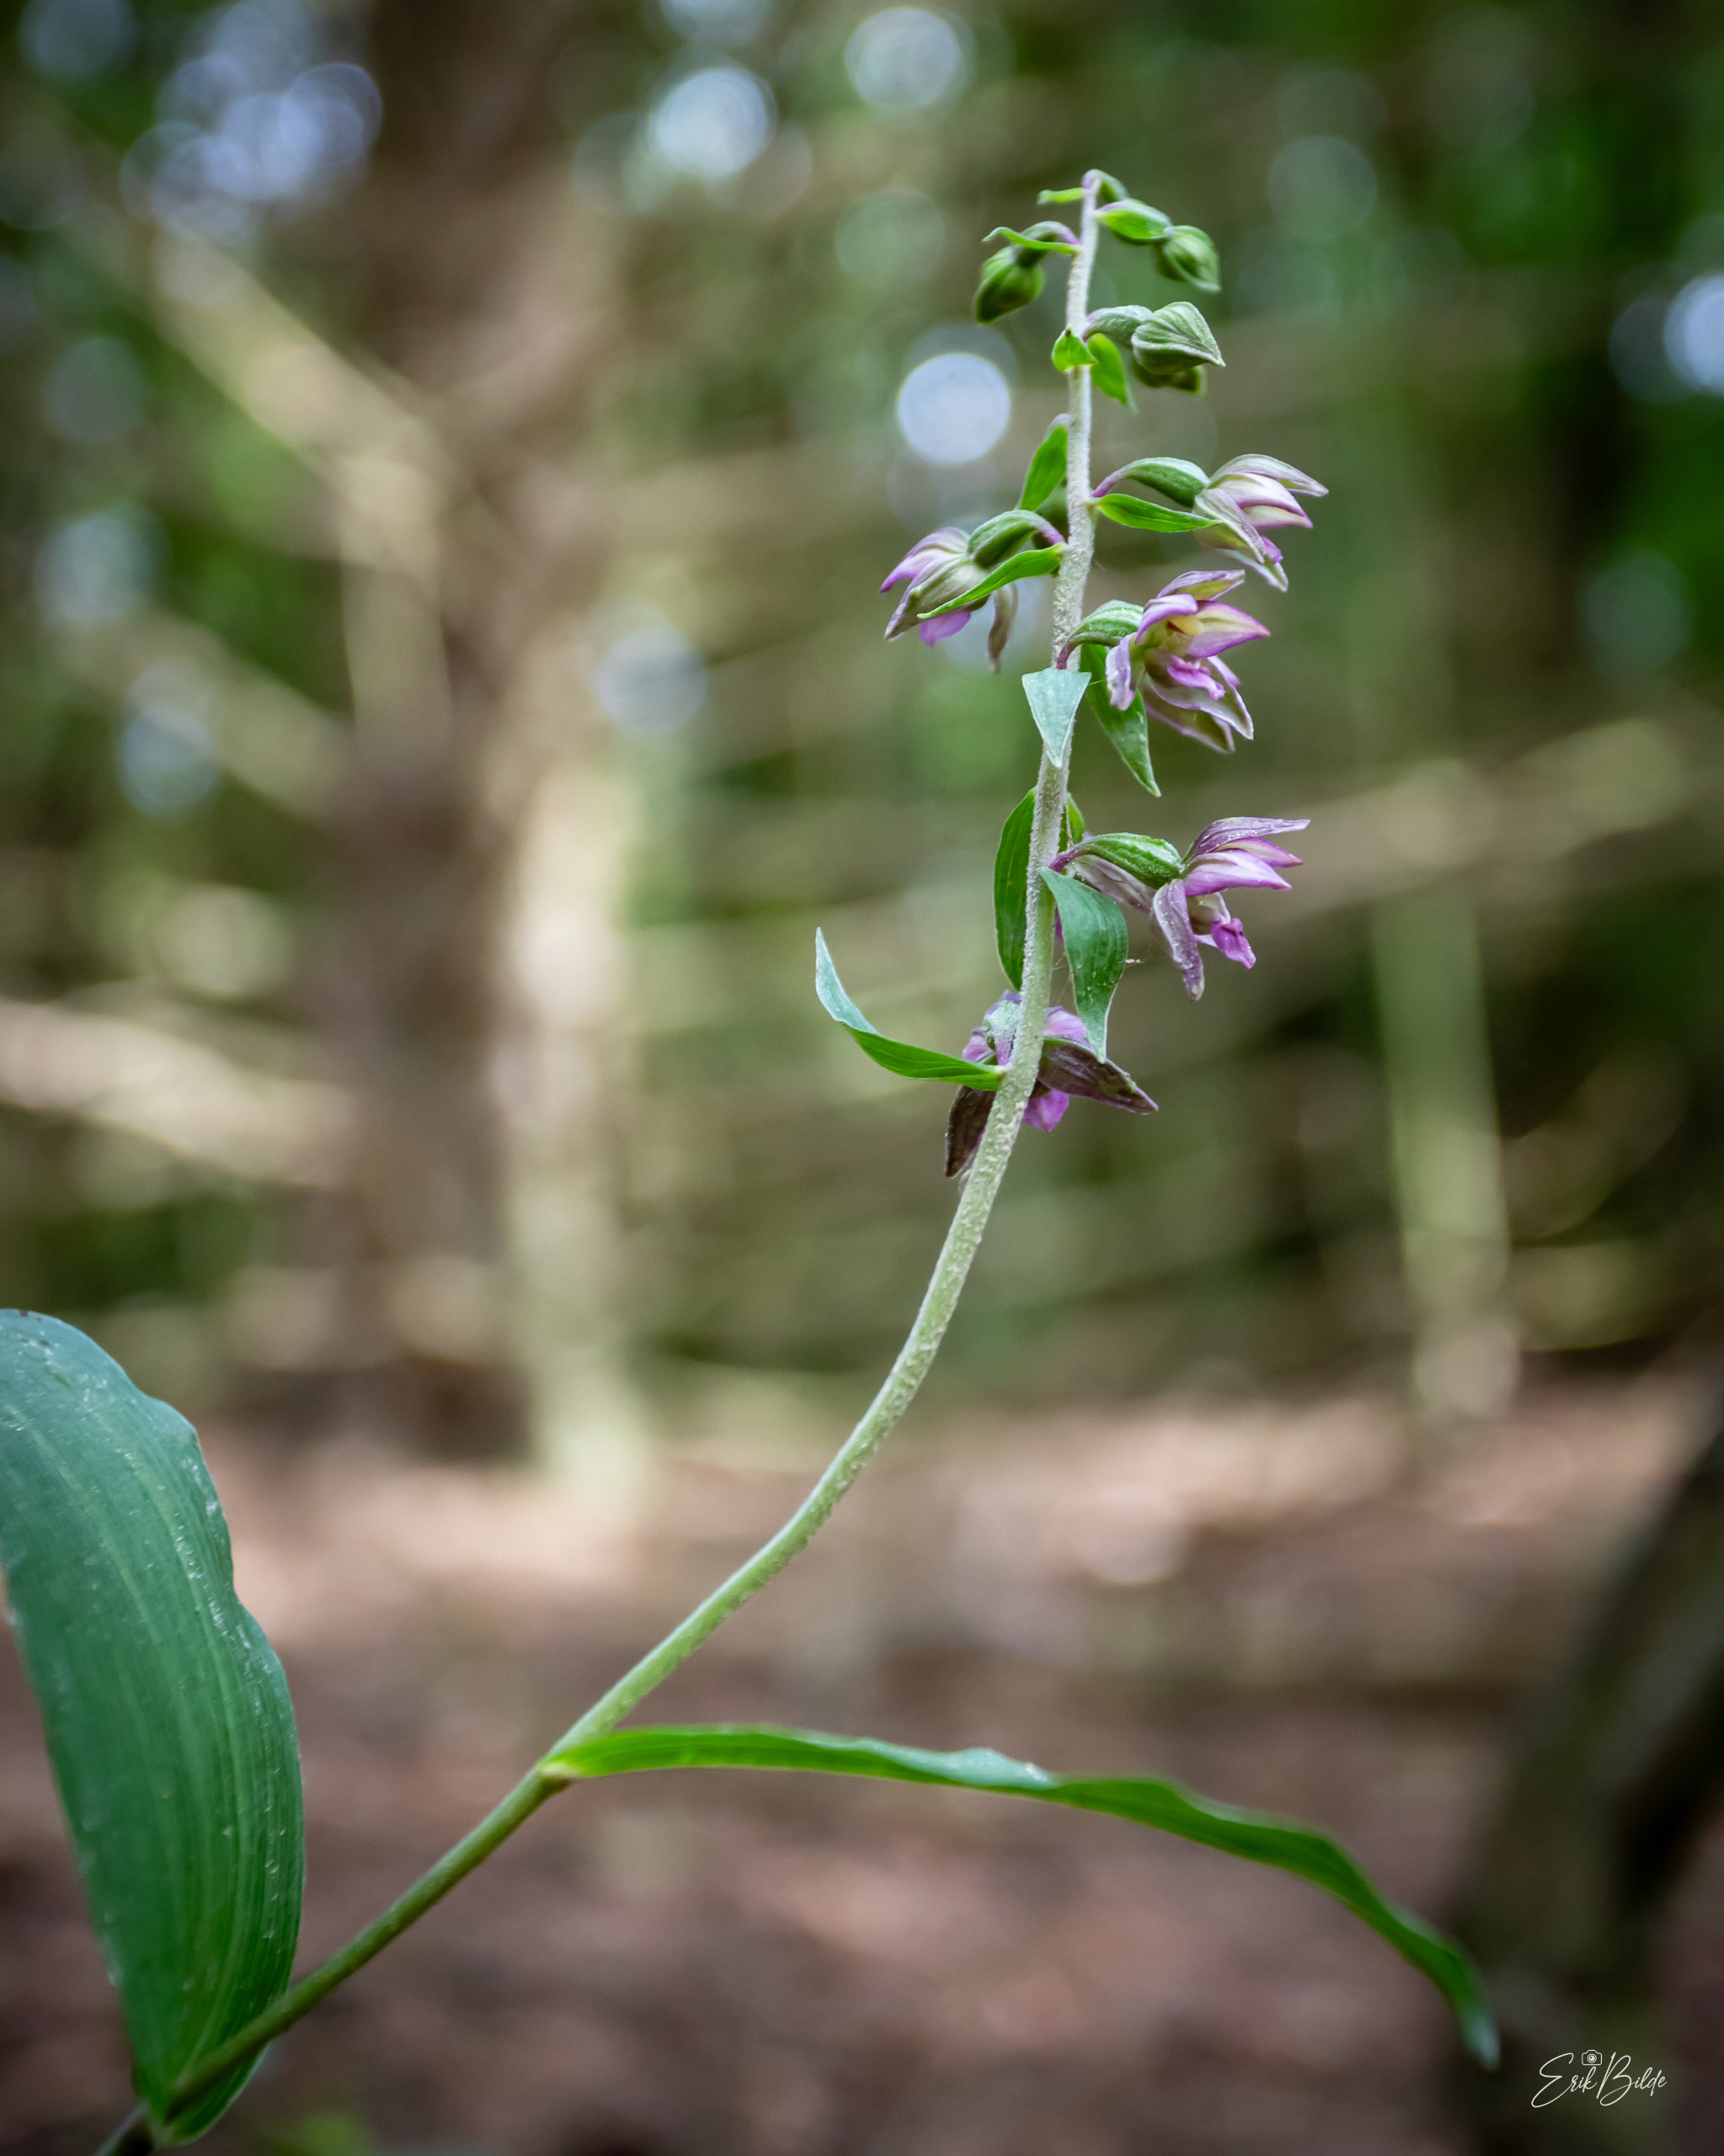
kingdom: Plantae
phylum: Tracheophyta
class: Liliopsida
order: Asparagales
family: Orchidaceae
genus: Epipactis
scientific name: Epipactis helleborine
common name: Skov-hullæbe
